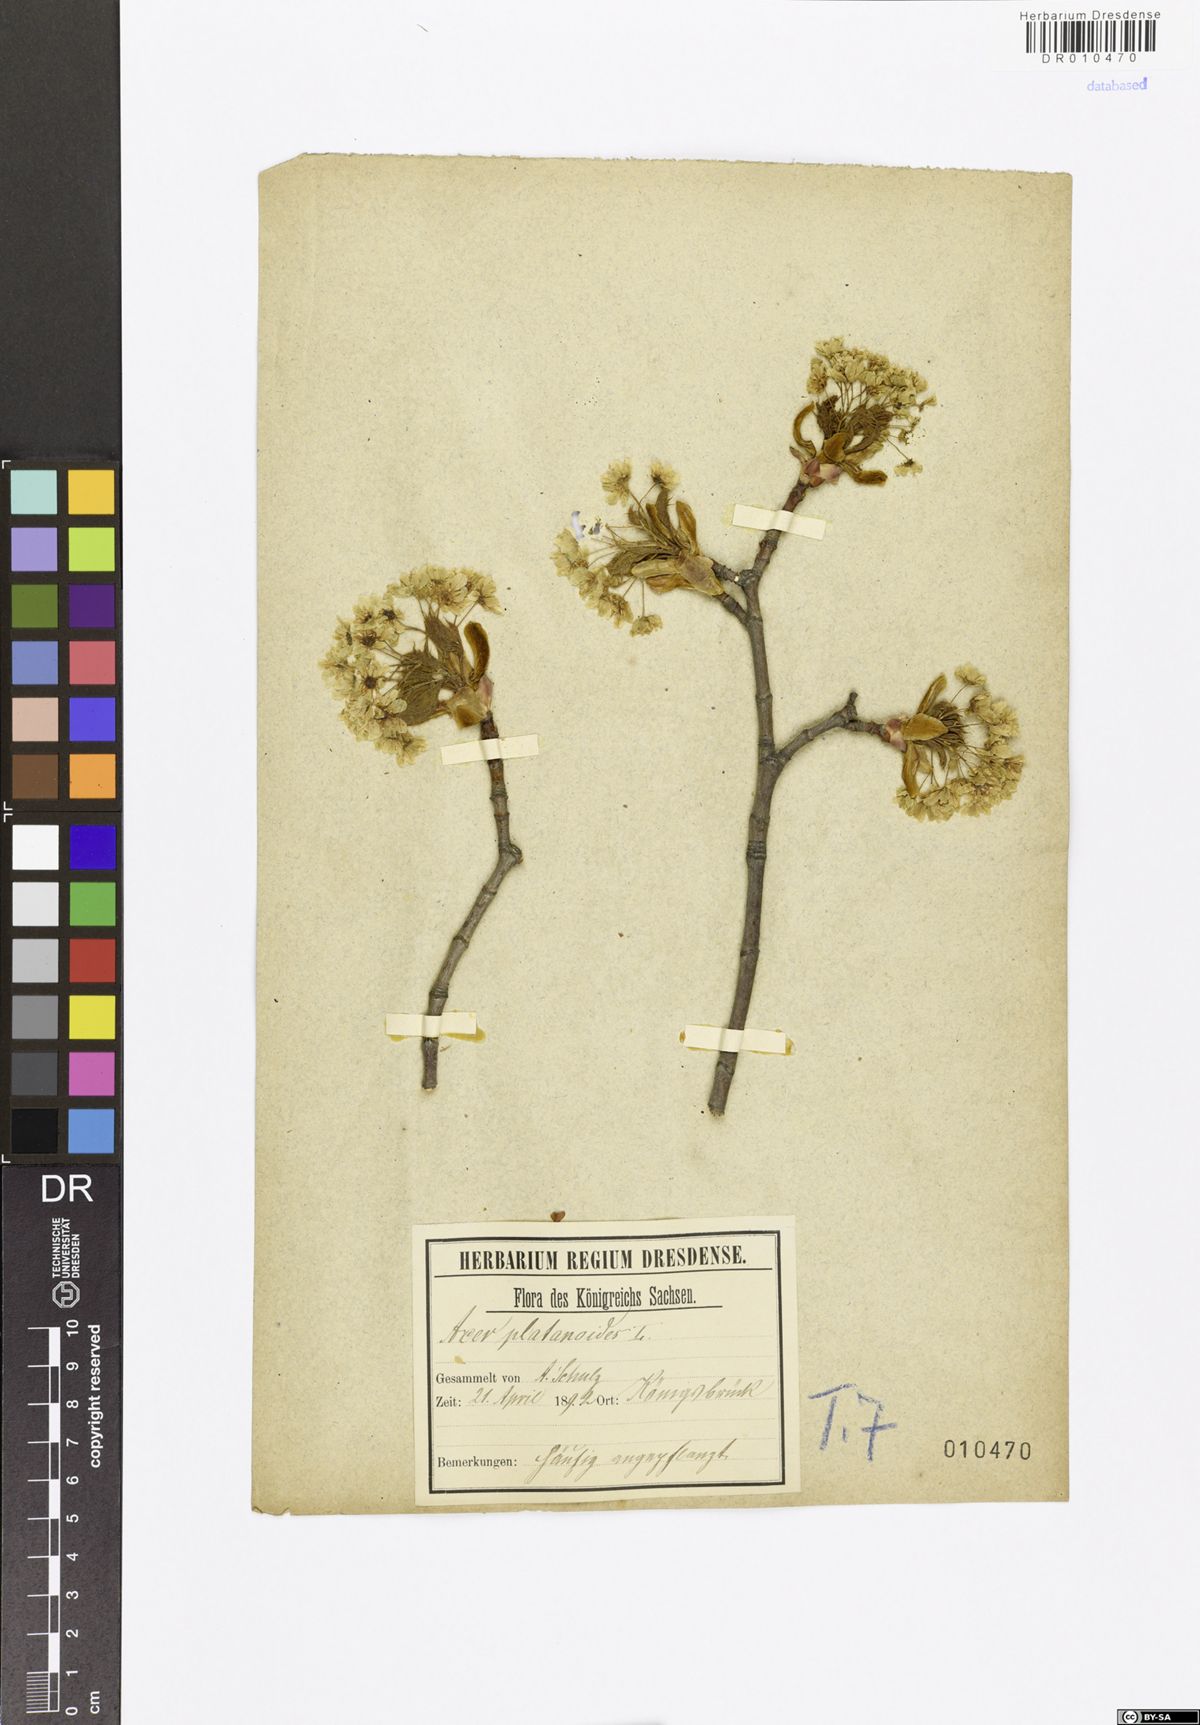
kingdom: Plantae
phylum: Tracheophyta
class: Magnoliopsida
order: Sapindales
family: Sapindaceae
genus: Acer
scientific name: Acer platanoides
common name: Norway maple
